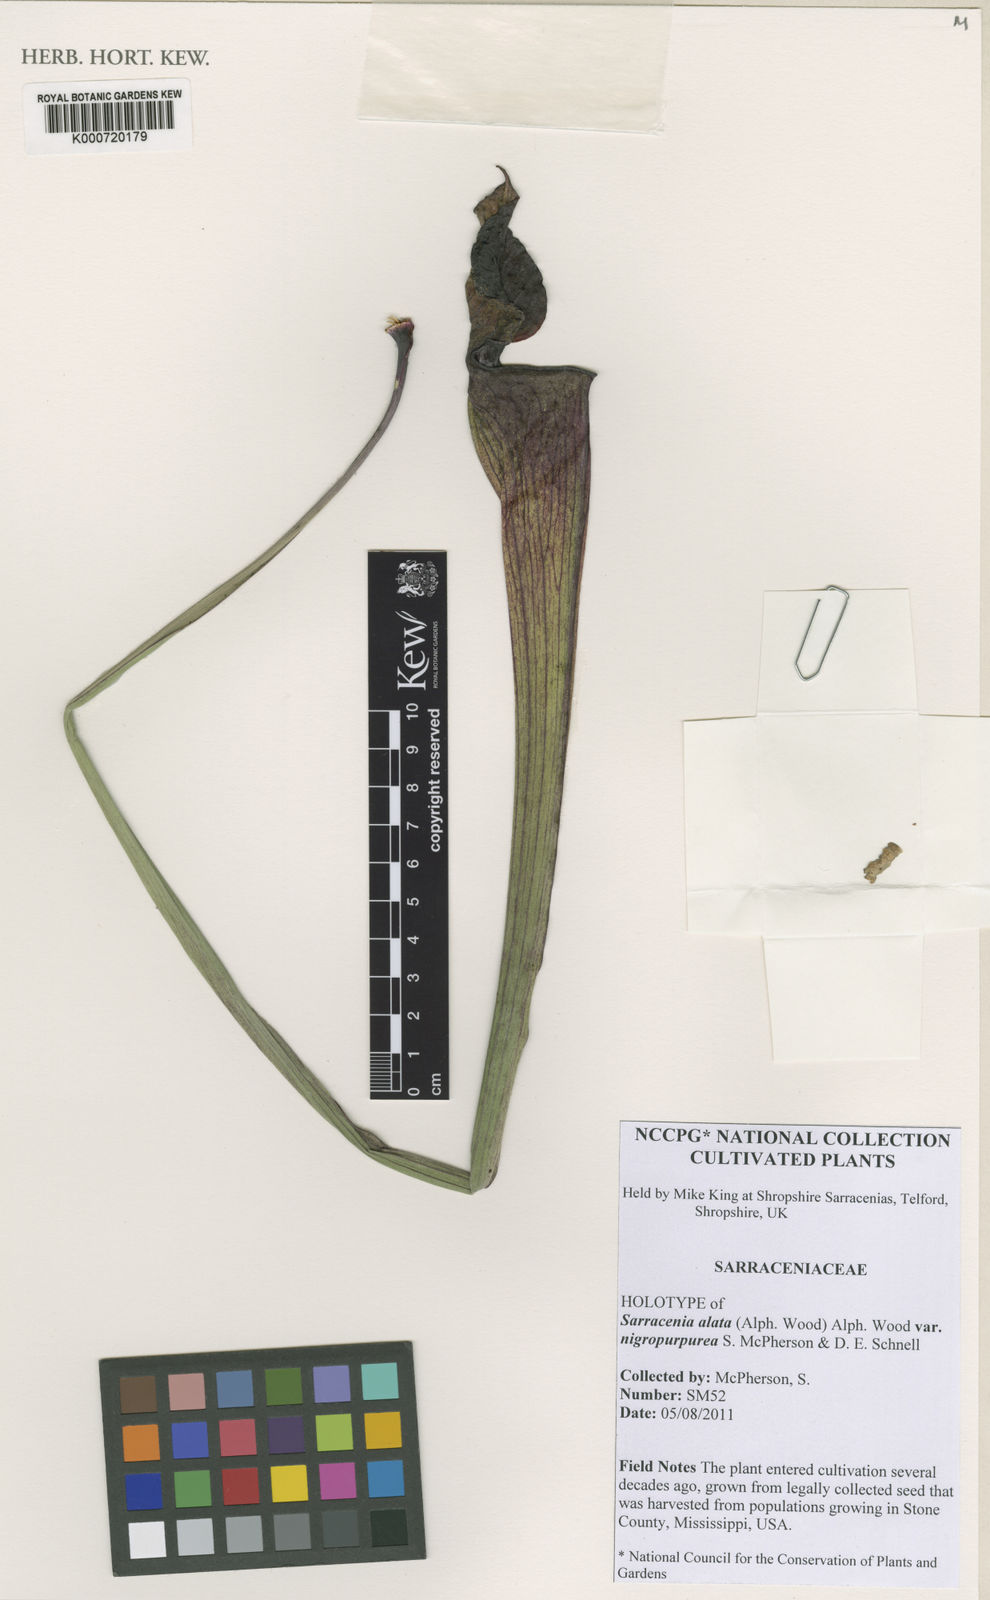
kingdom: Plantae
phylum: Tracheophyta
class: Magnoliopsida
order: Ericales
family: Sarraceniaceae
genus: Sarracenia
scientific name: Sarracenia alata
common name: Yellow trumpets
